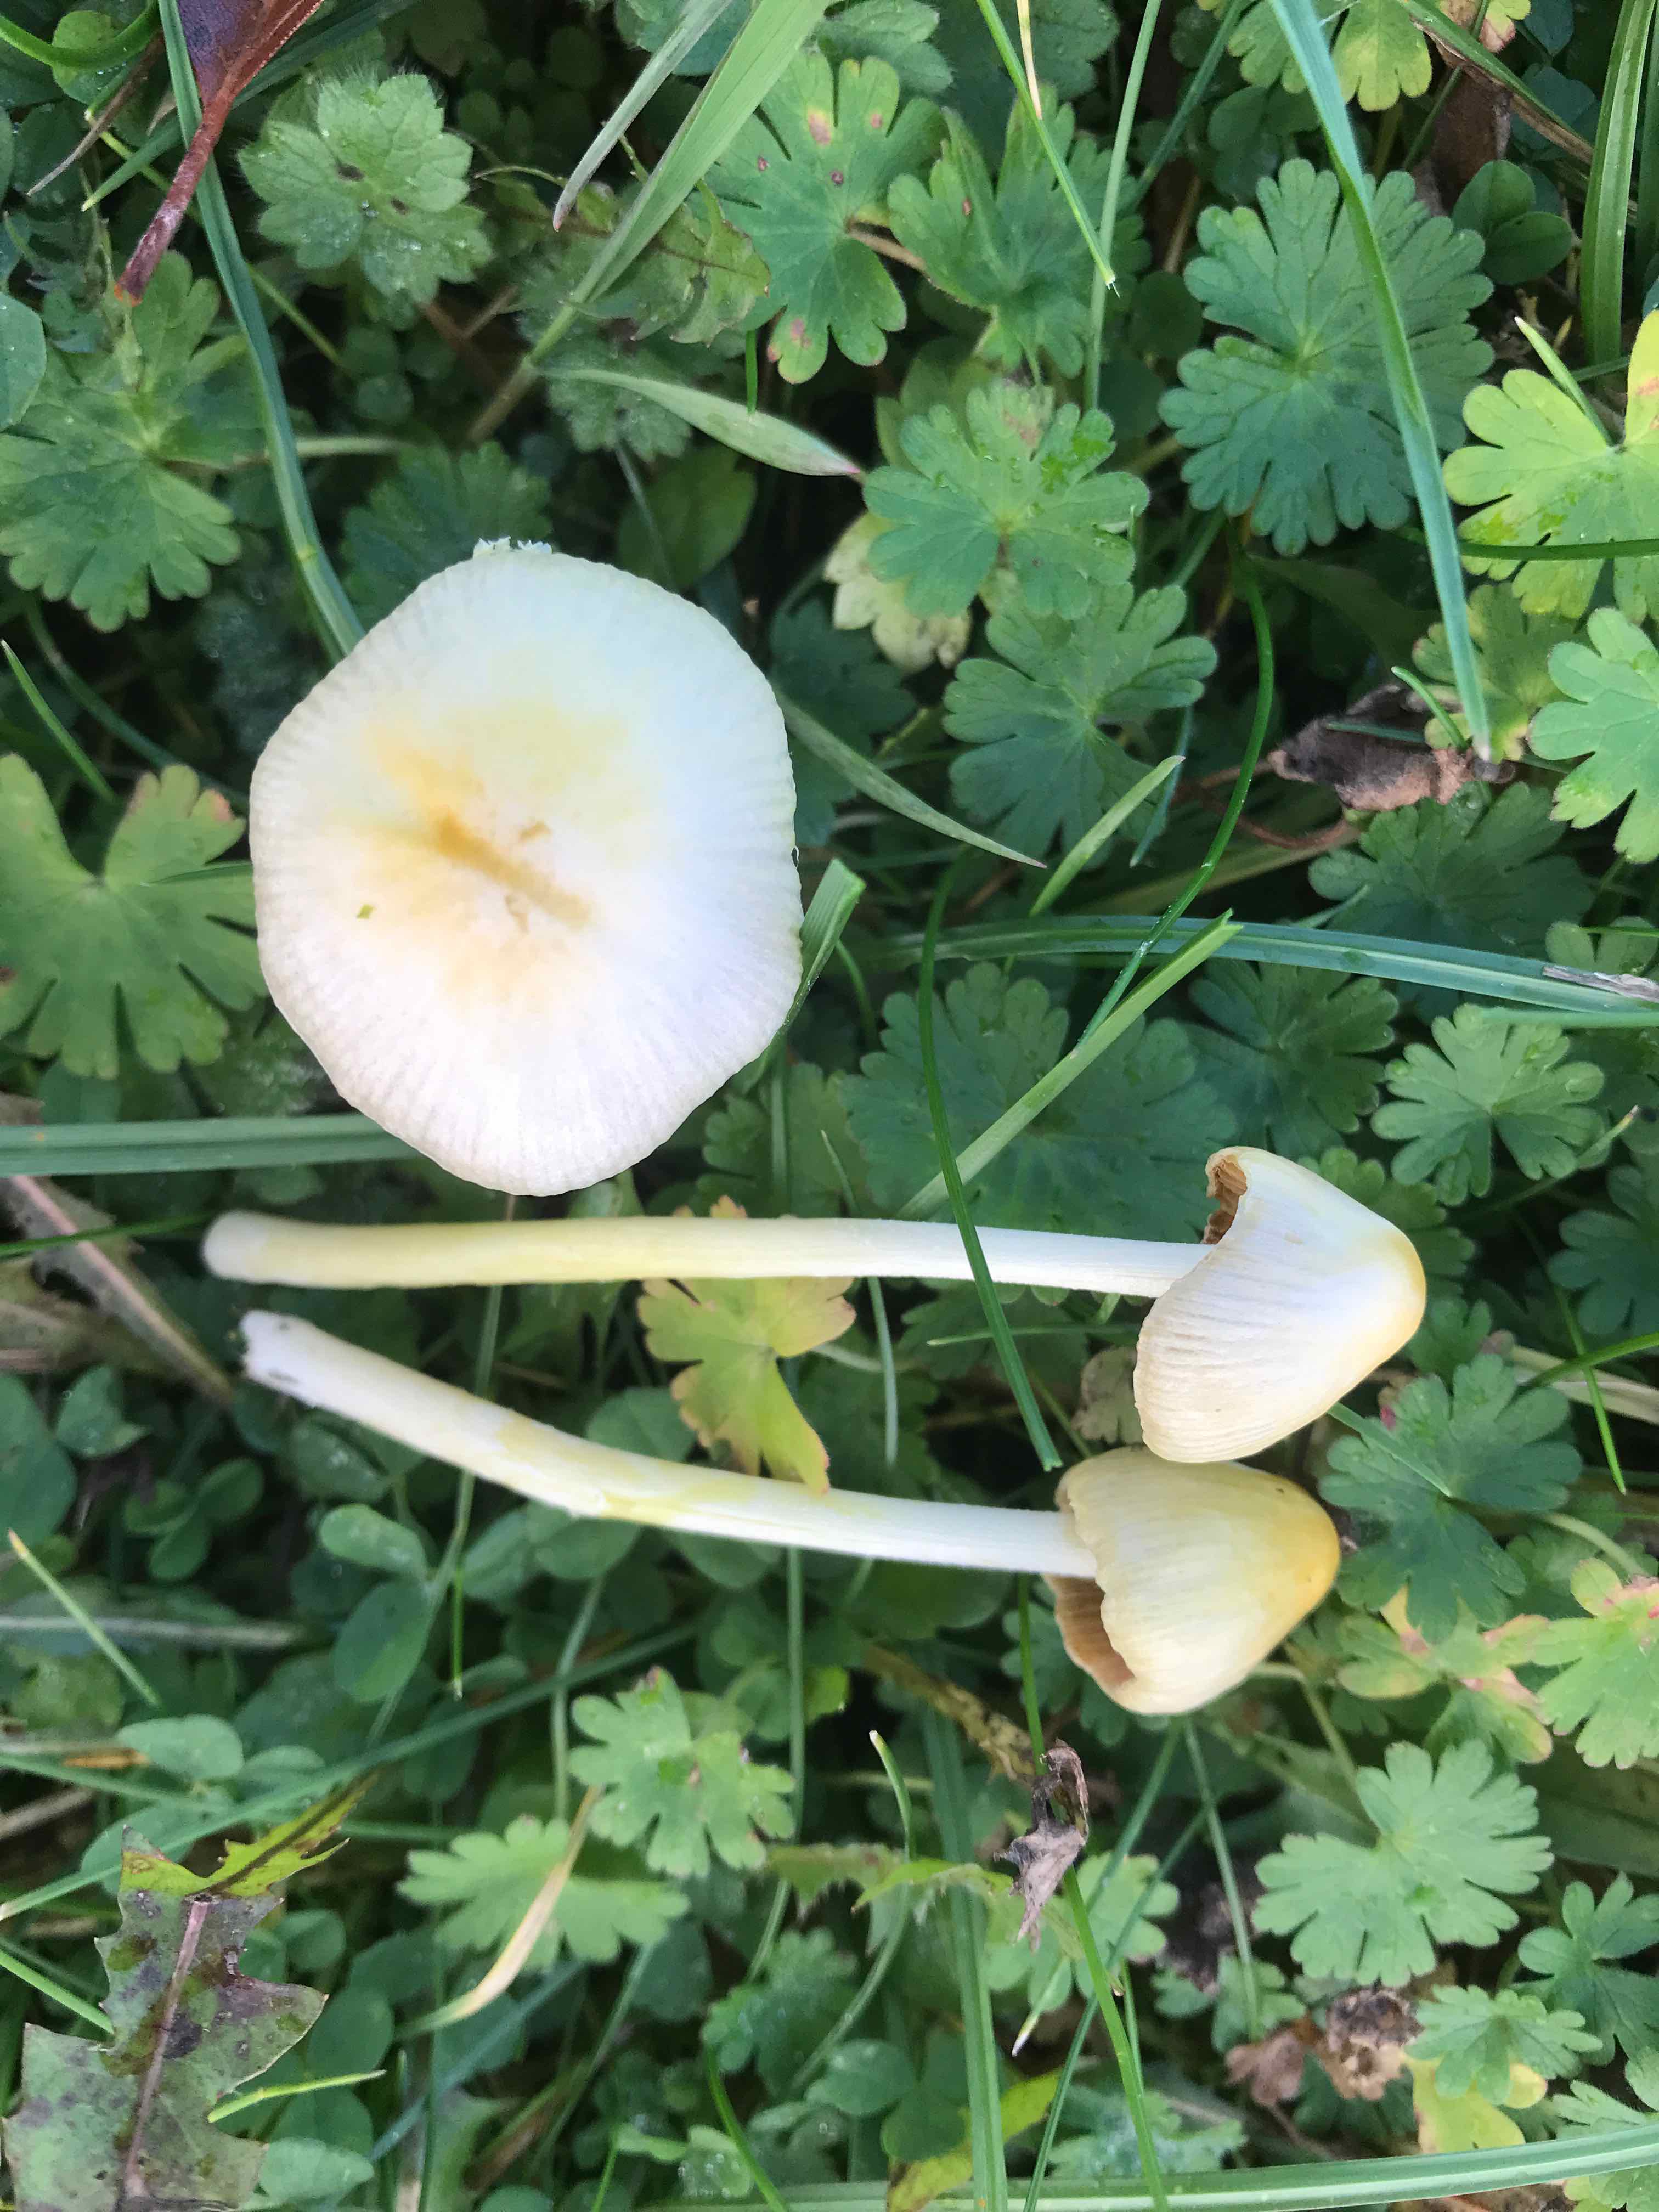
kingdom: Fungi
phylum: Basidiomycota
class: Agaricomycetes
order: Agaricales
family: Bolbitiaceae
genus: Bolbitius
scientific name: Bolbitius titubans
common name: almindelig gulhat
